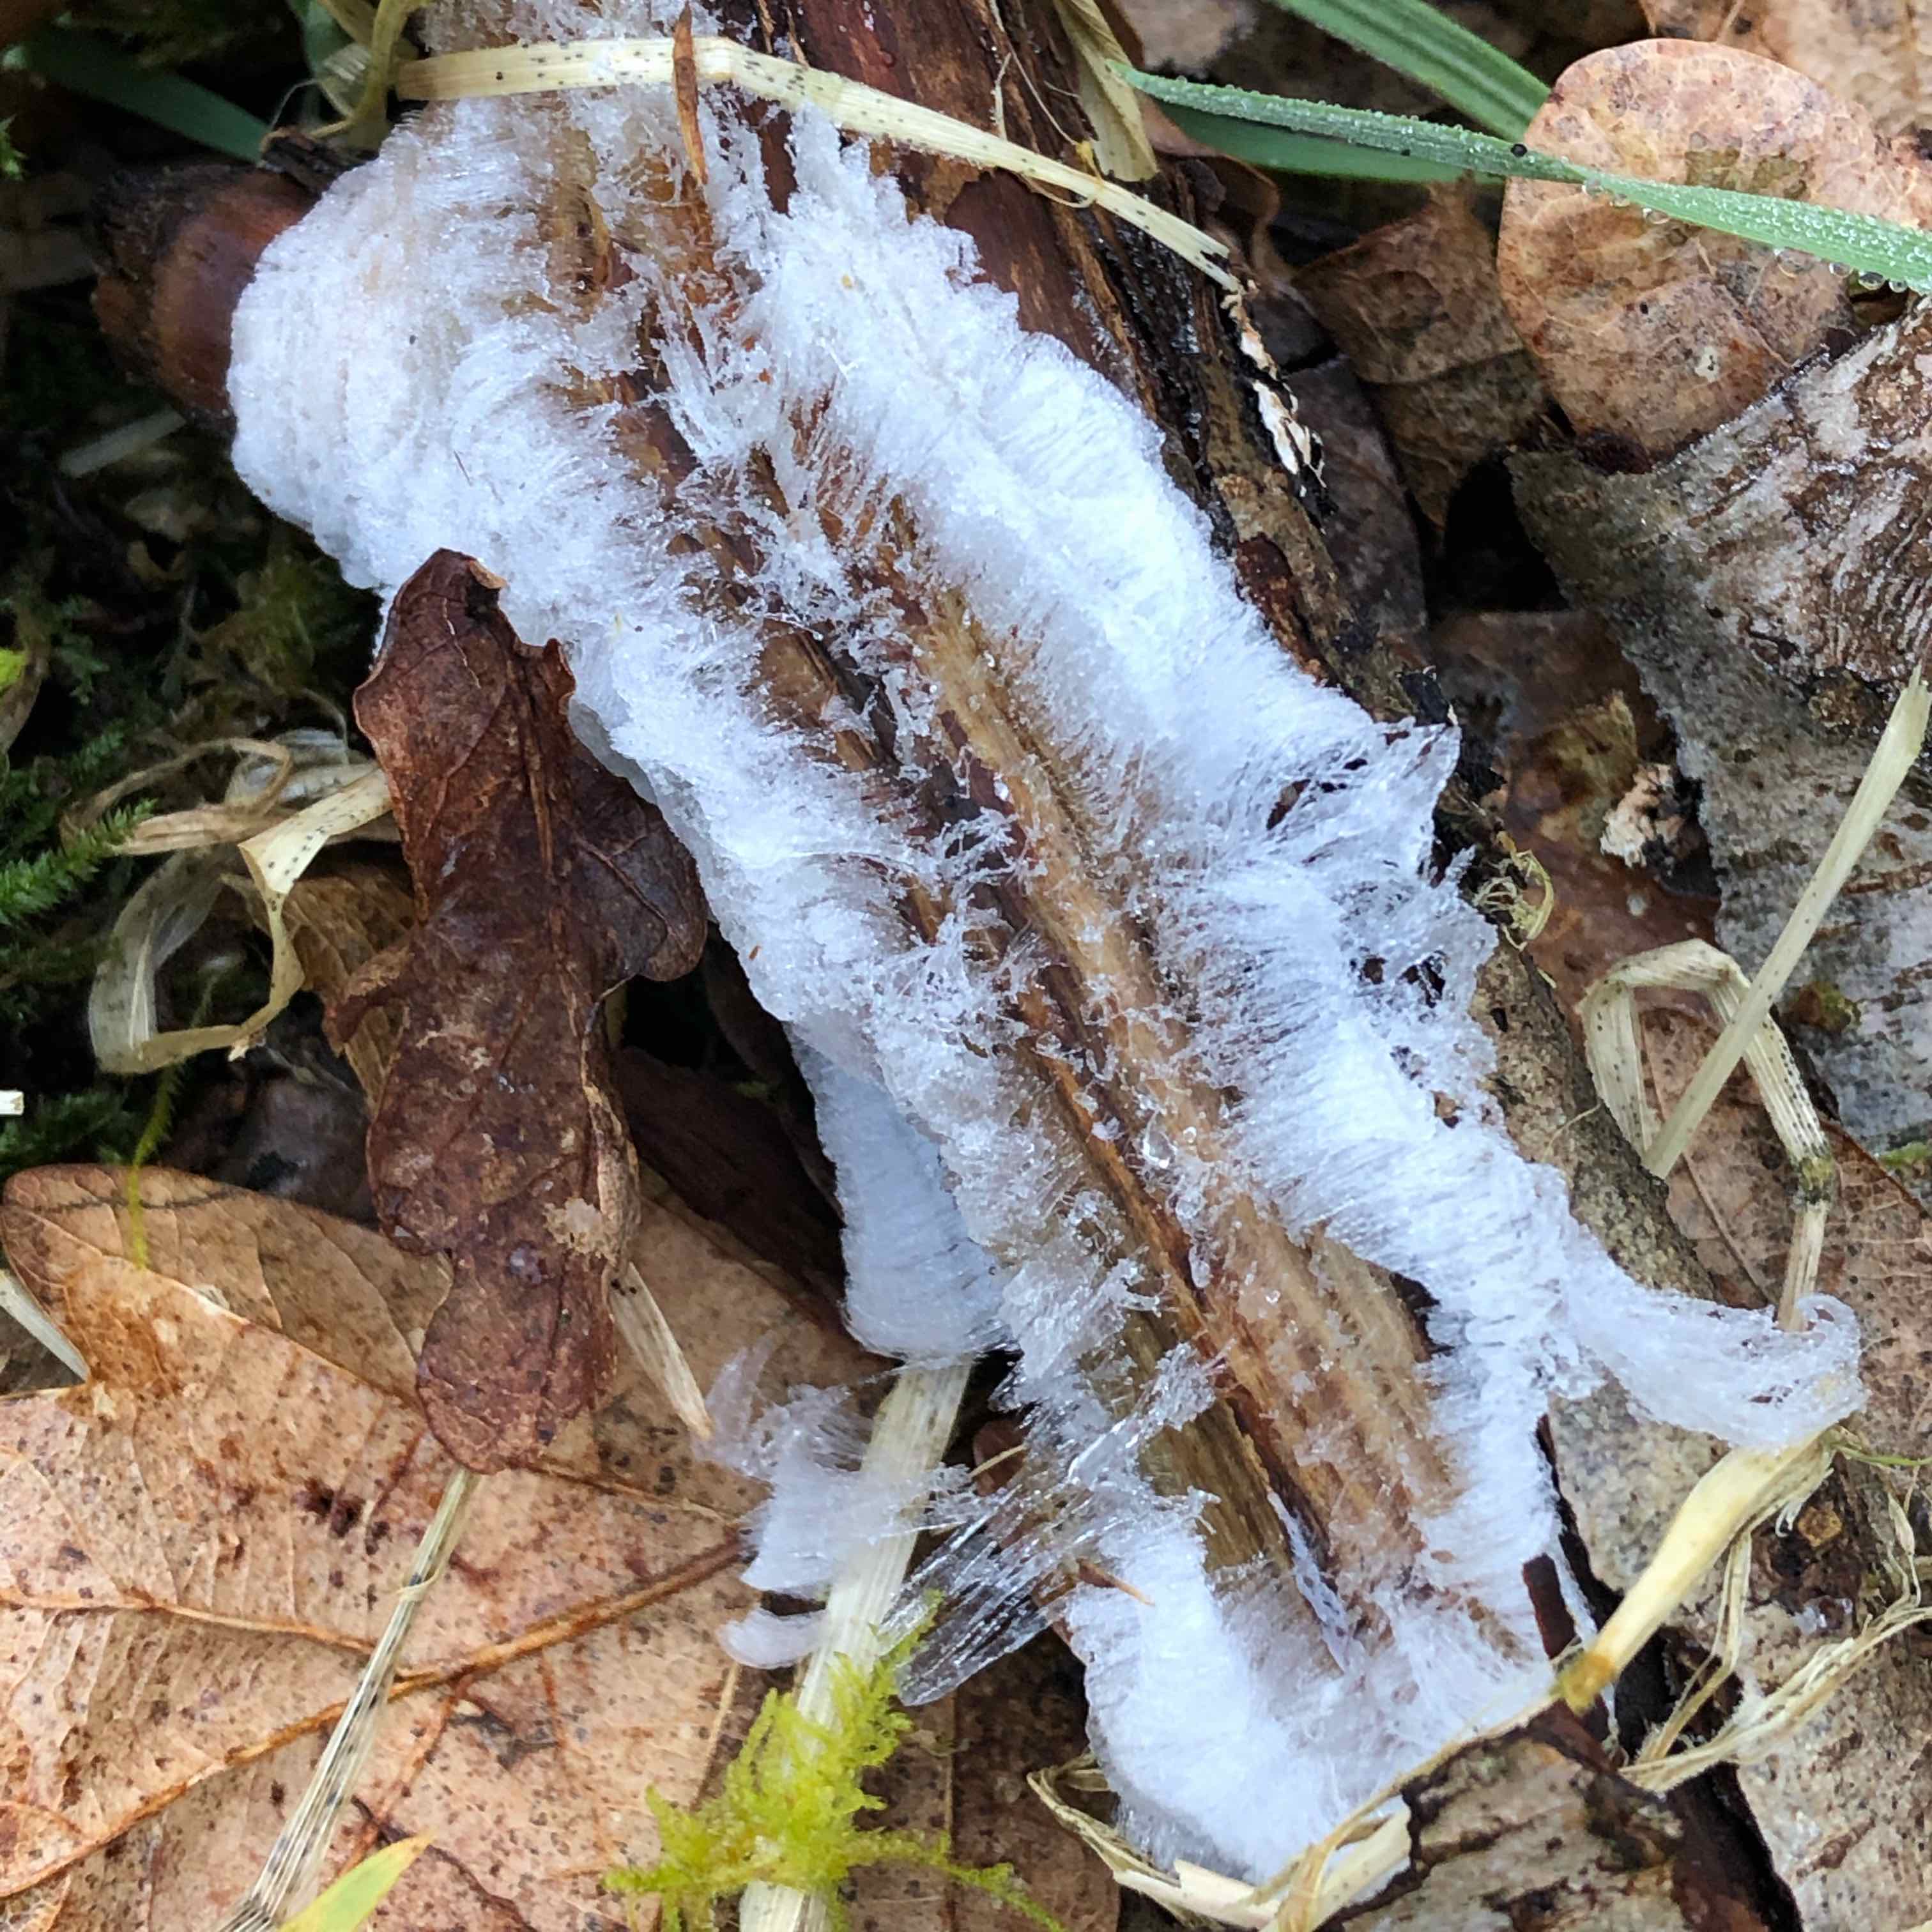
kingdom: Fungi
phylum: Basidiomycota
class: Tremellomycetes
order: Tremellales
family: Exidiaceae
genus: Exidiopsis
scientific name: Exidiopsis effusa
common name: smuk bævrehinde
